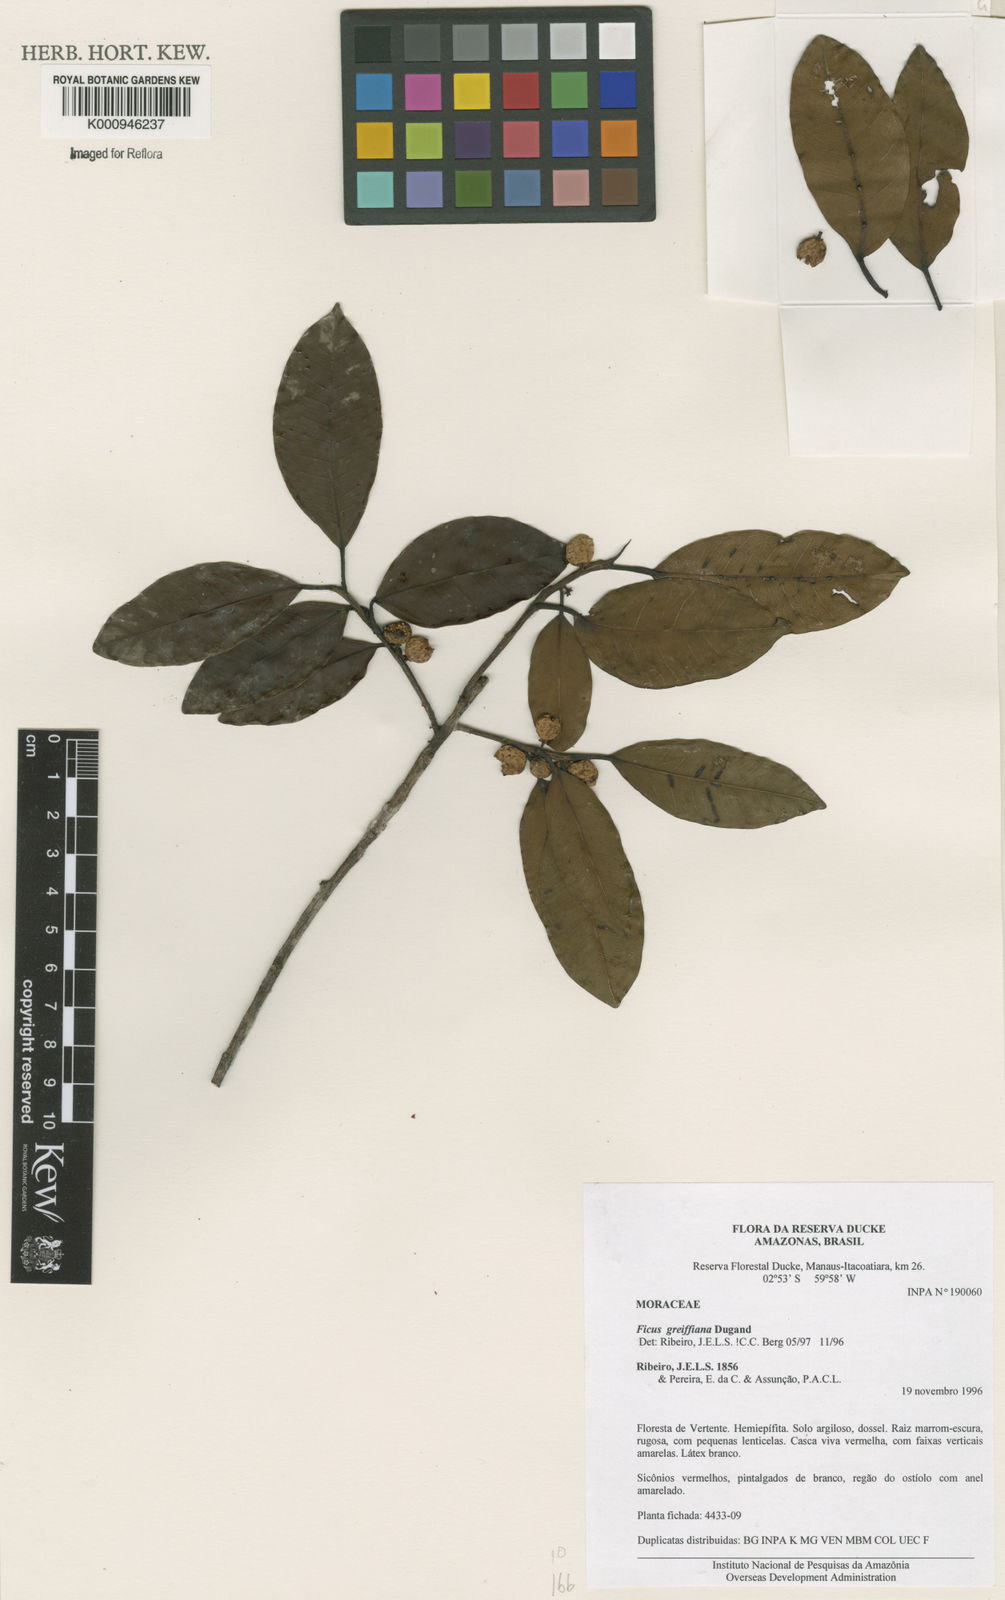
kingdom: Plantae
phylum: Tracheophyta
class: Magnoliopsida
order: Rosales
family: Moraceae
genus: Ficus
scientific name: Ficus americana
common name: Jamaican cherry fig
